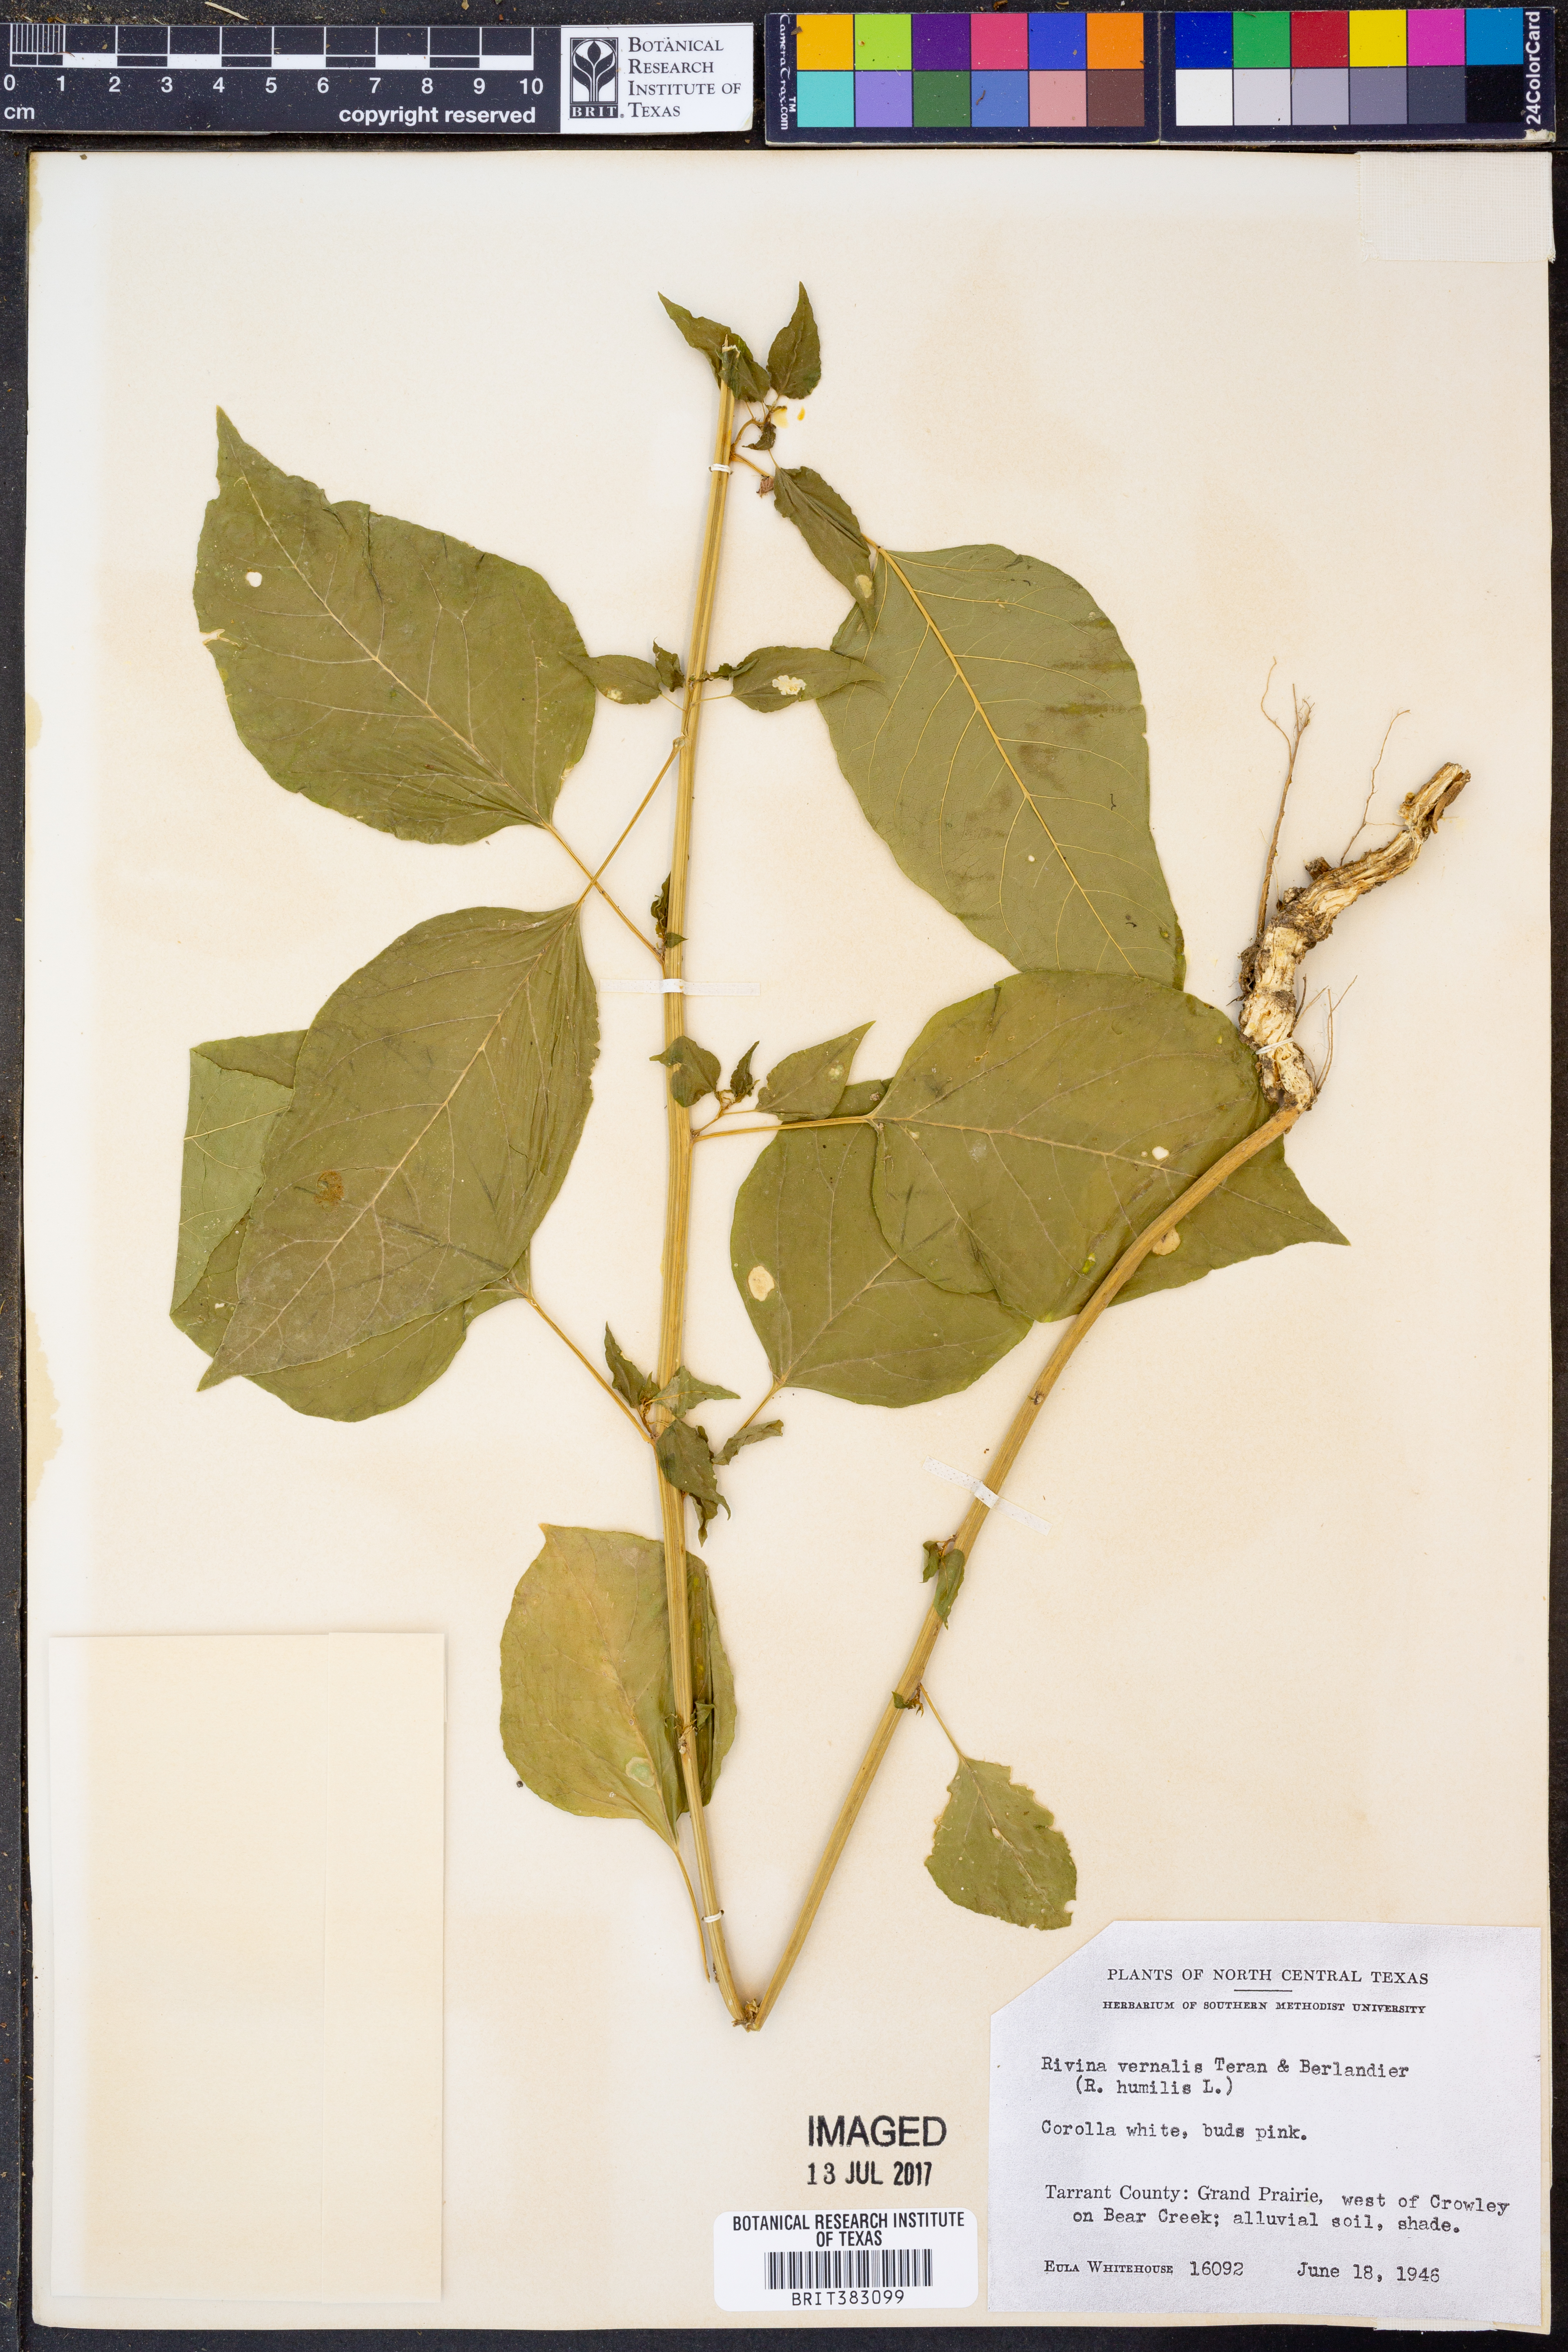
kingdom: Plantae
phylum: Tracheophyta
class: Magnoliopsida
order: Caryophyllales
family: Phytolaccaceae
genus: Rivina
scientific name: Rivina humilis
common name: Rougeplant
